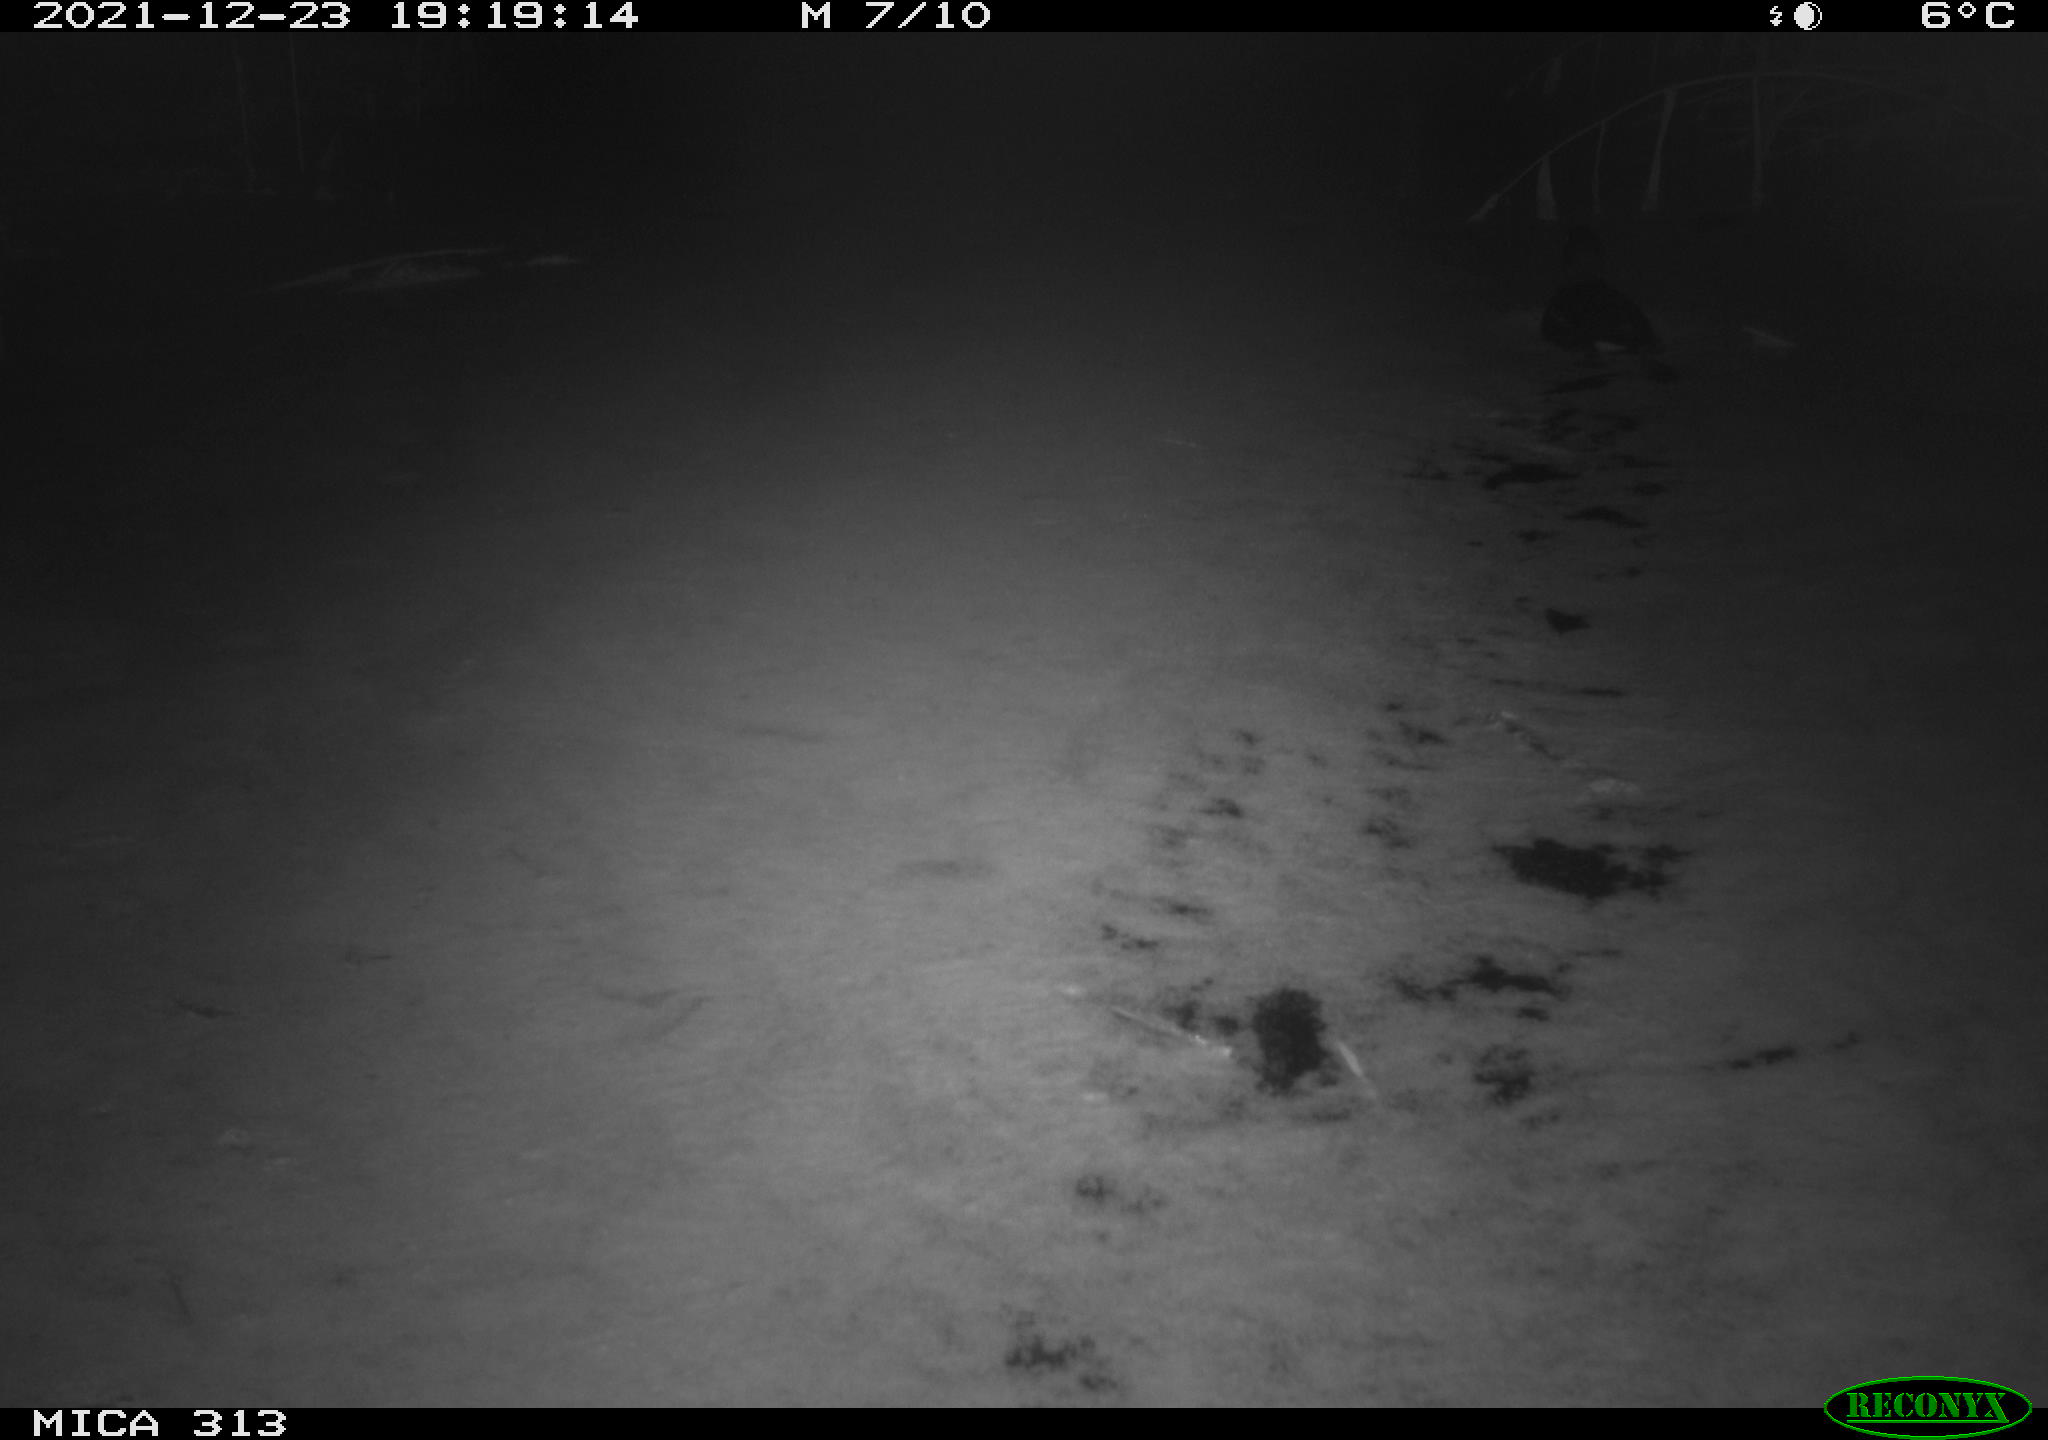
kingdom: Animalia
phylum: Chordata
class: Aves
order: Gruiformes
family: Rallidae
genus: Gallinula
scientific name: Gallinula chloropus
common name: Common moorhen
